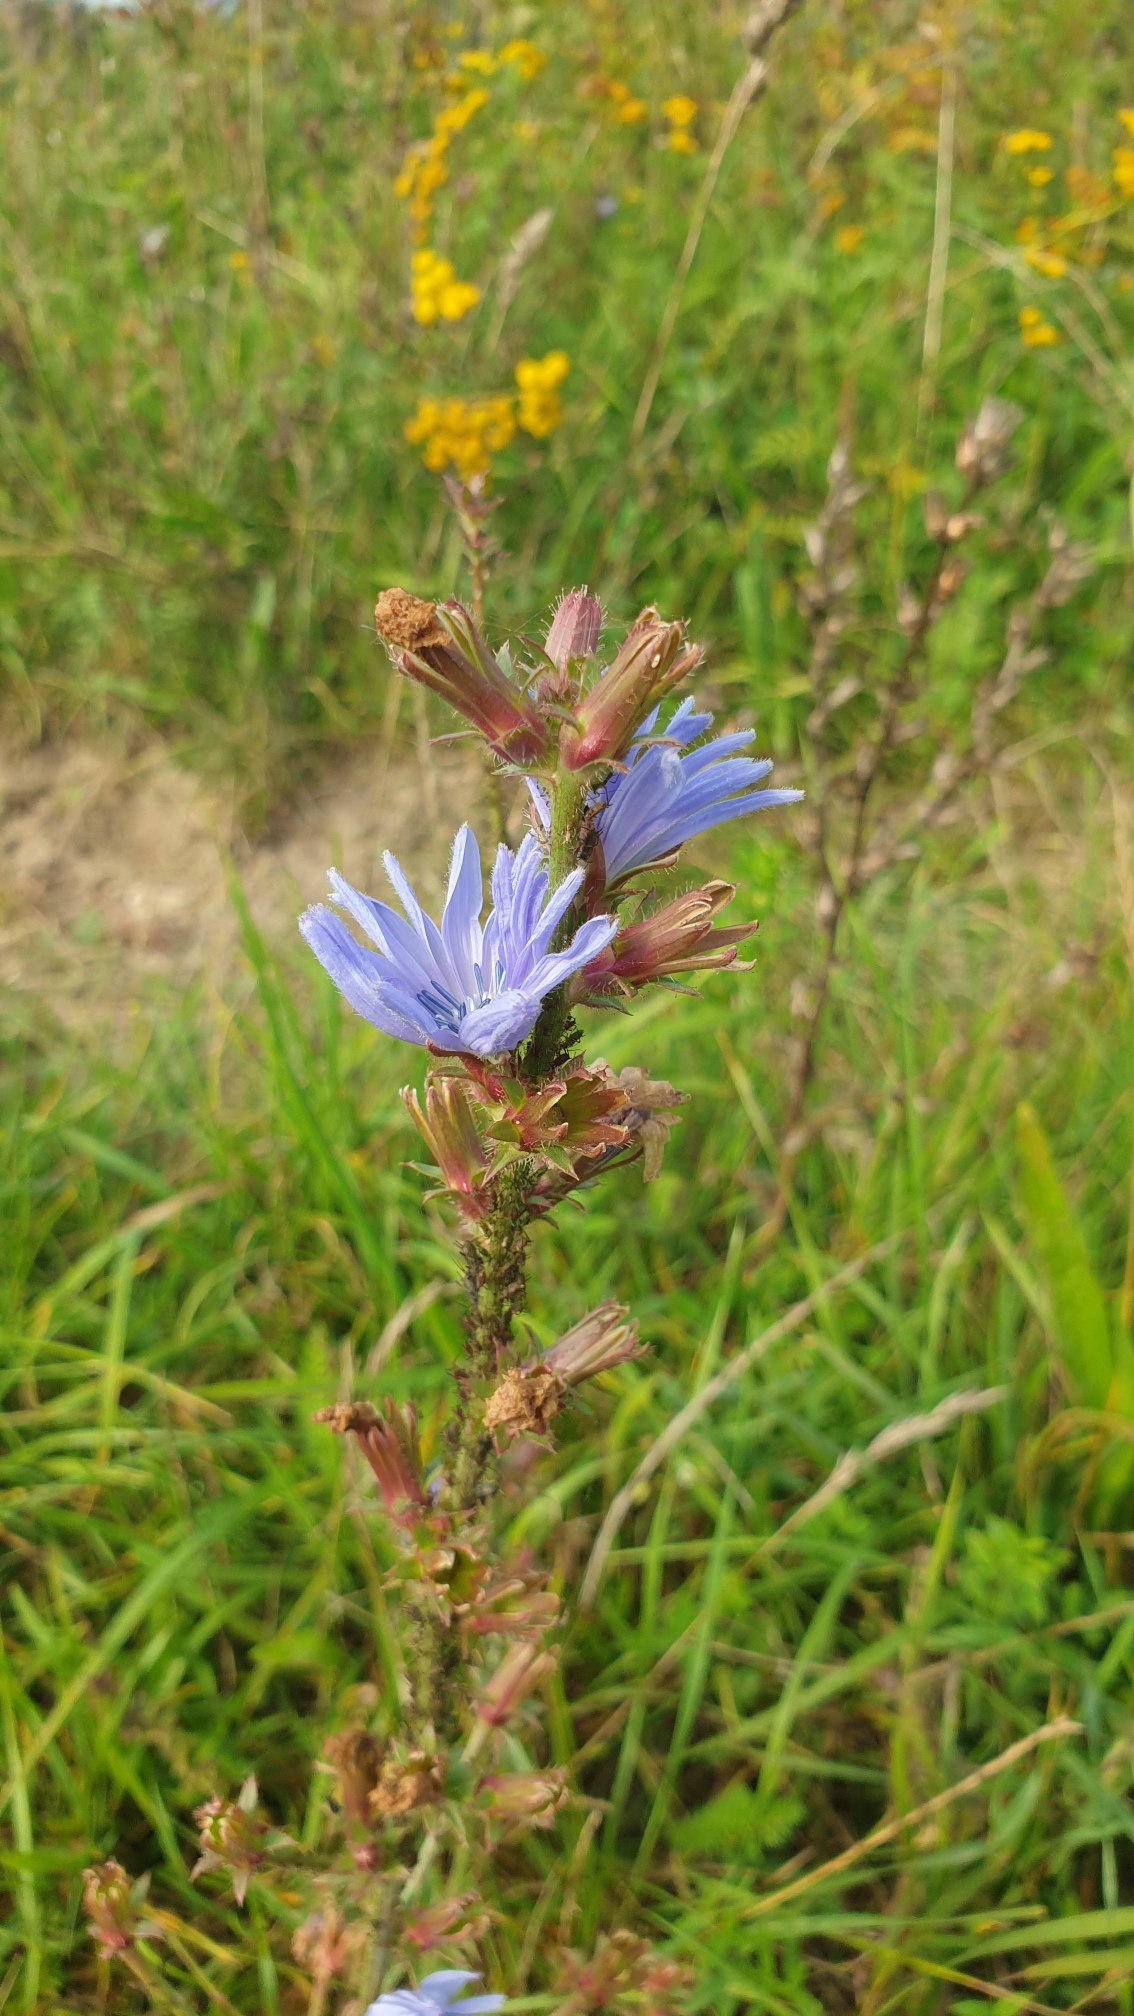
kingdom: Plantae
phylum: Tracheophyta
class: Magnoliopsida
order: Asterales
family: Asteraceae
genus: Cichorium
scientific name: Cichorium intybus
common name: Cikorie
